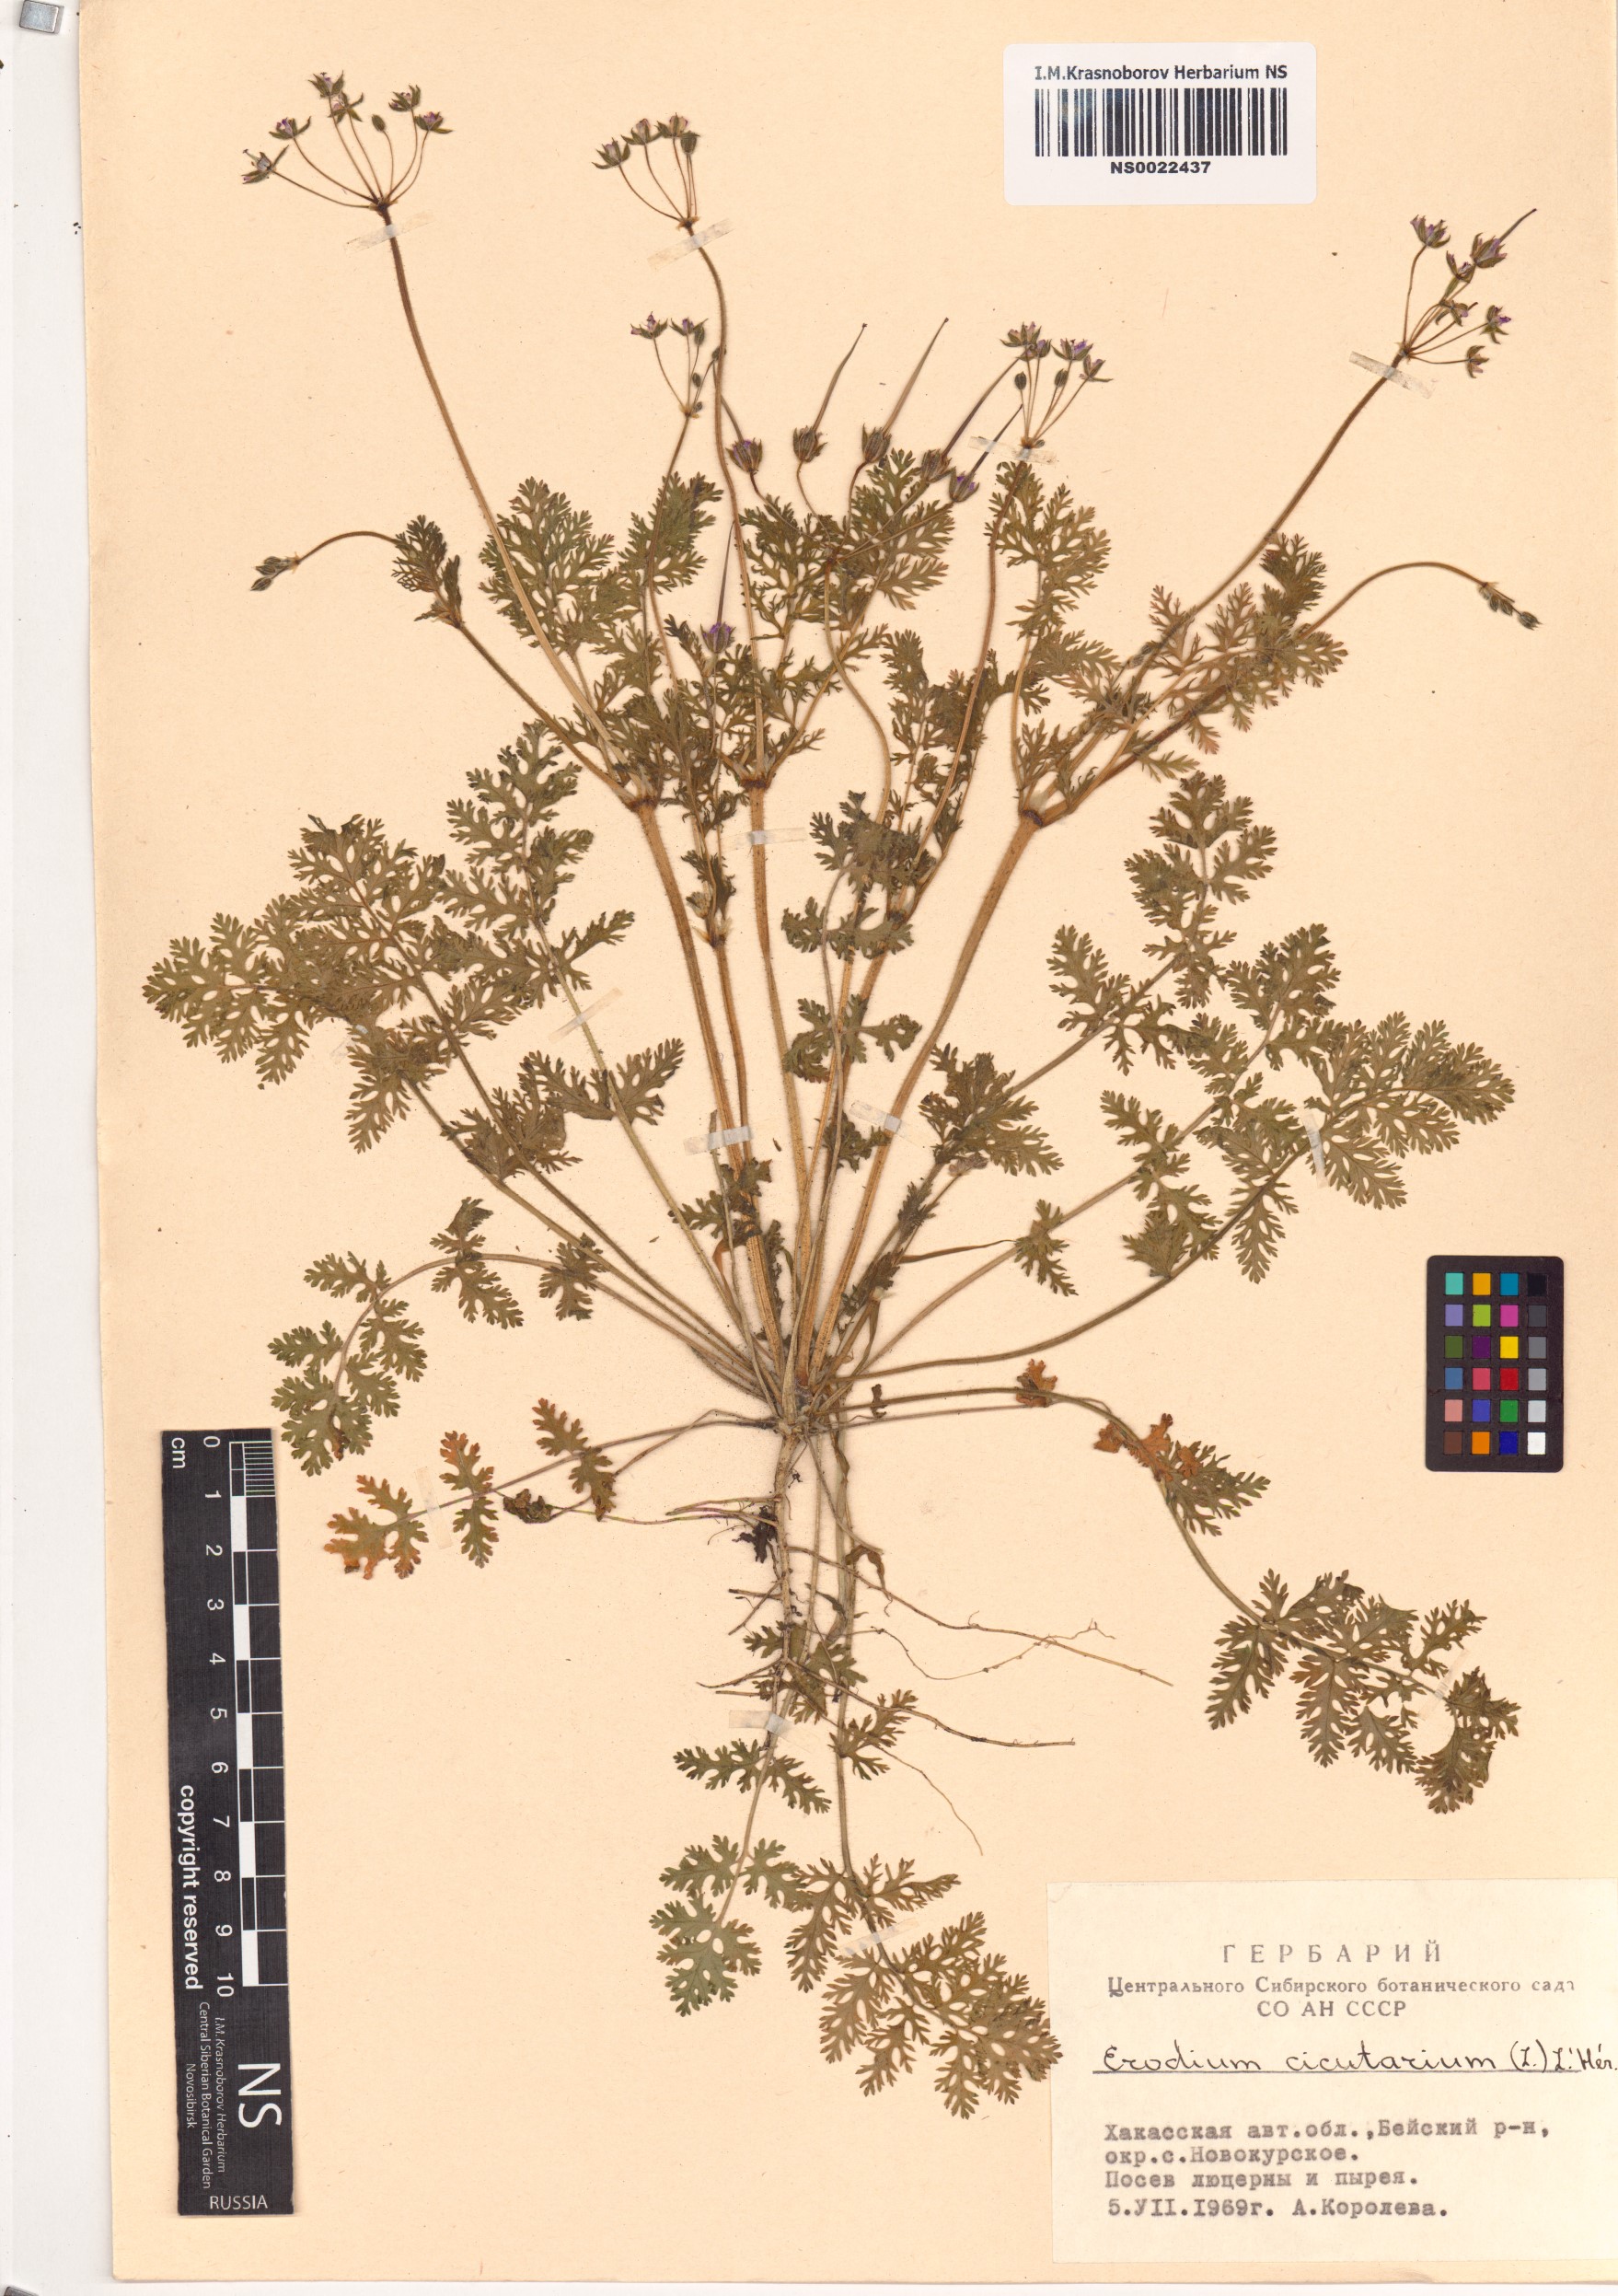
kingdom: Plantae
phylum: Tracheophyta
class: Magnoliopsida
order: Geraniales
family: Geraniaceae
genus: Erodium
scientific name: Erodium cicutarium
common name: Common stork's-bill
